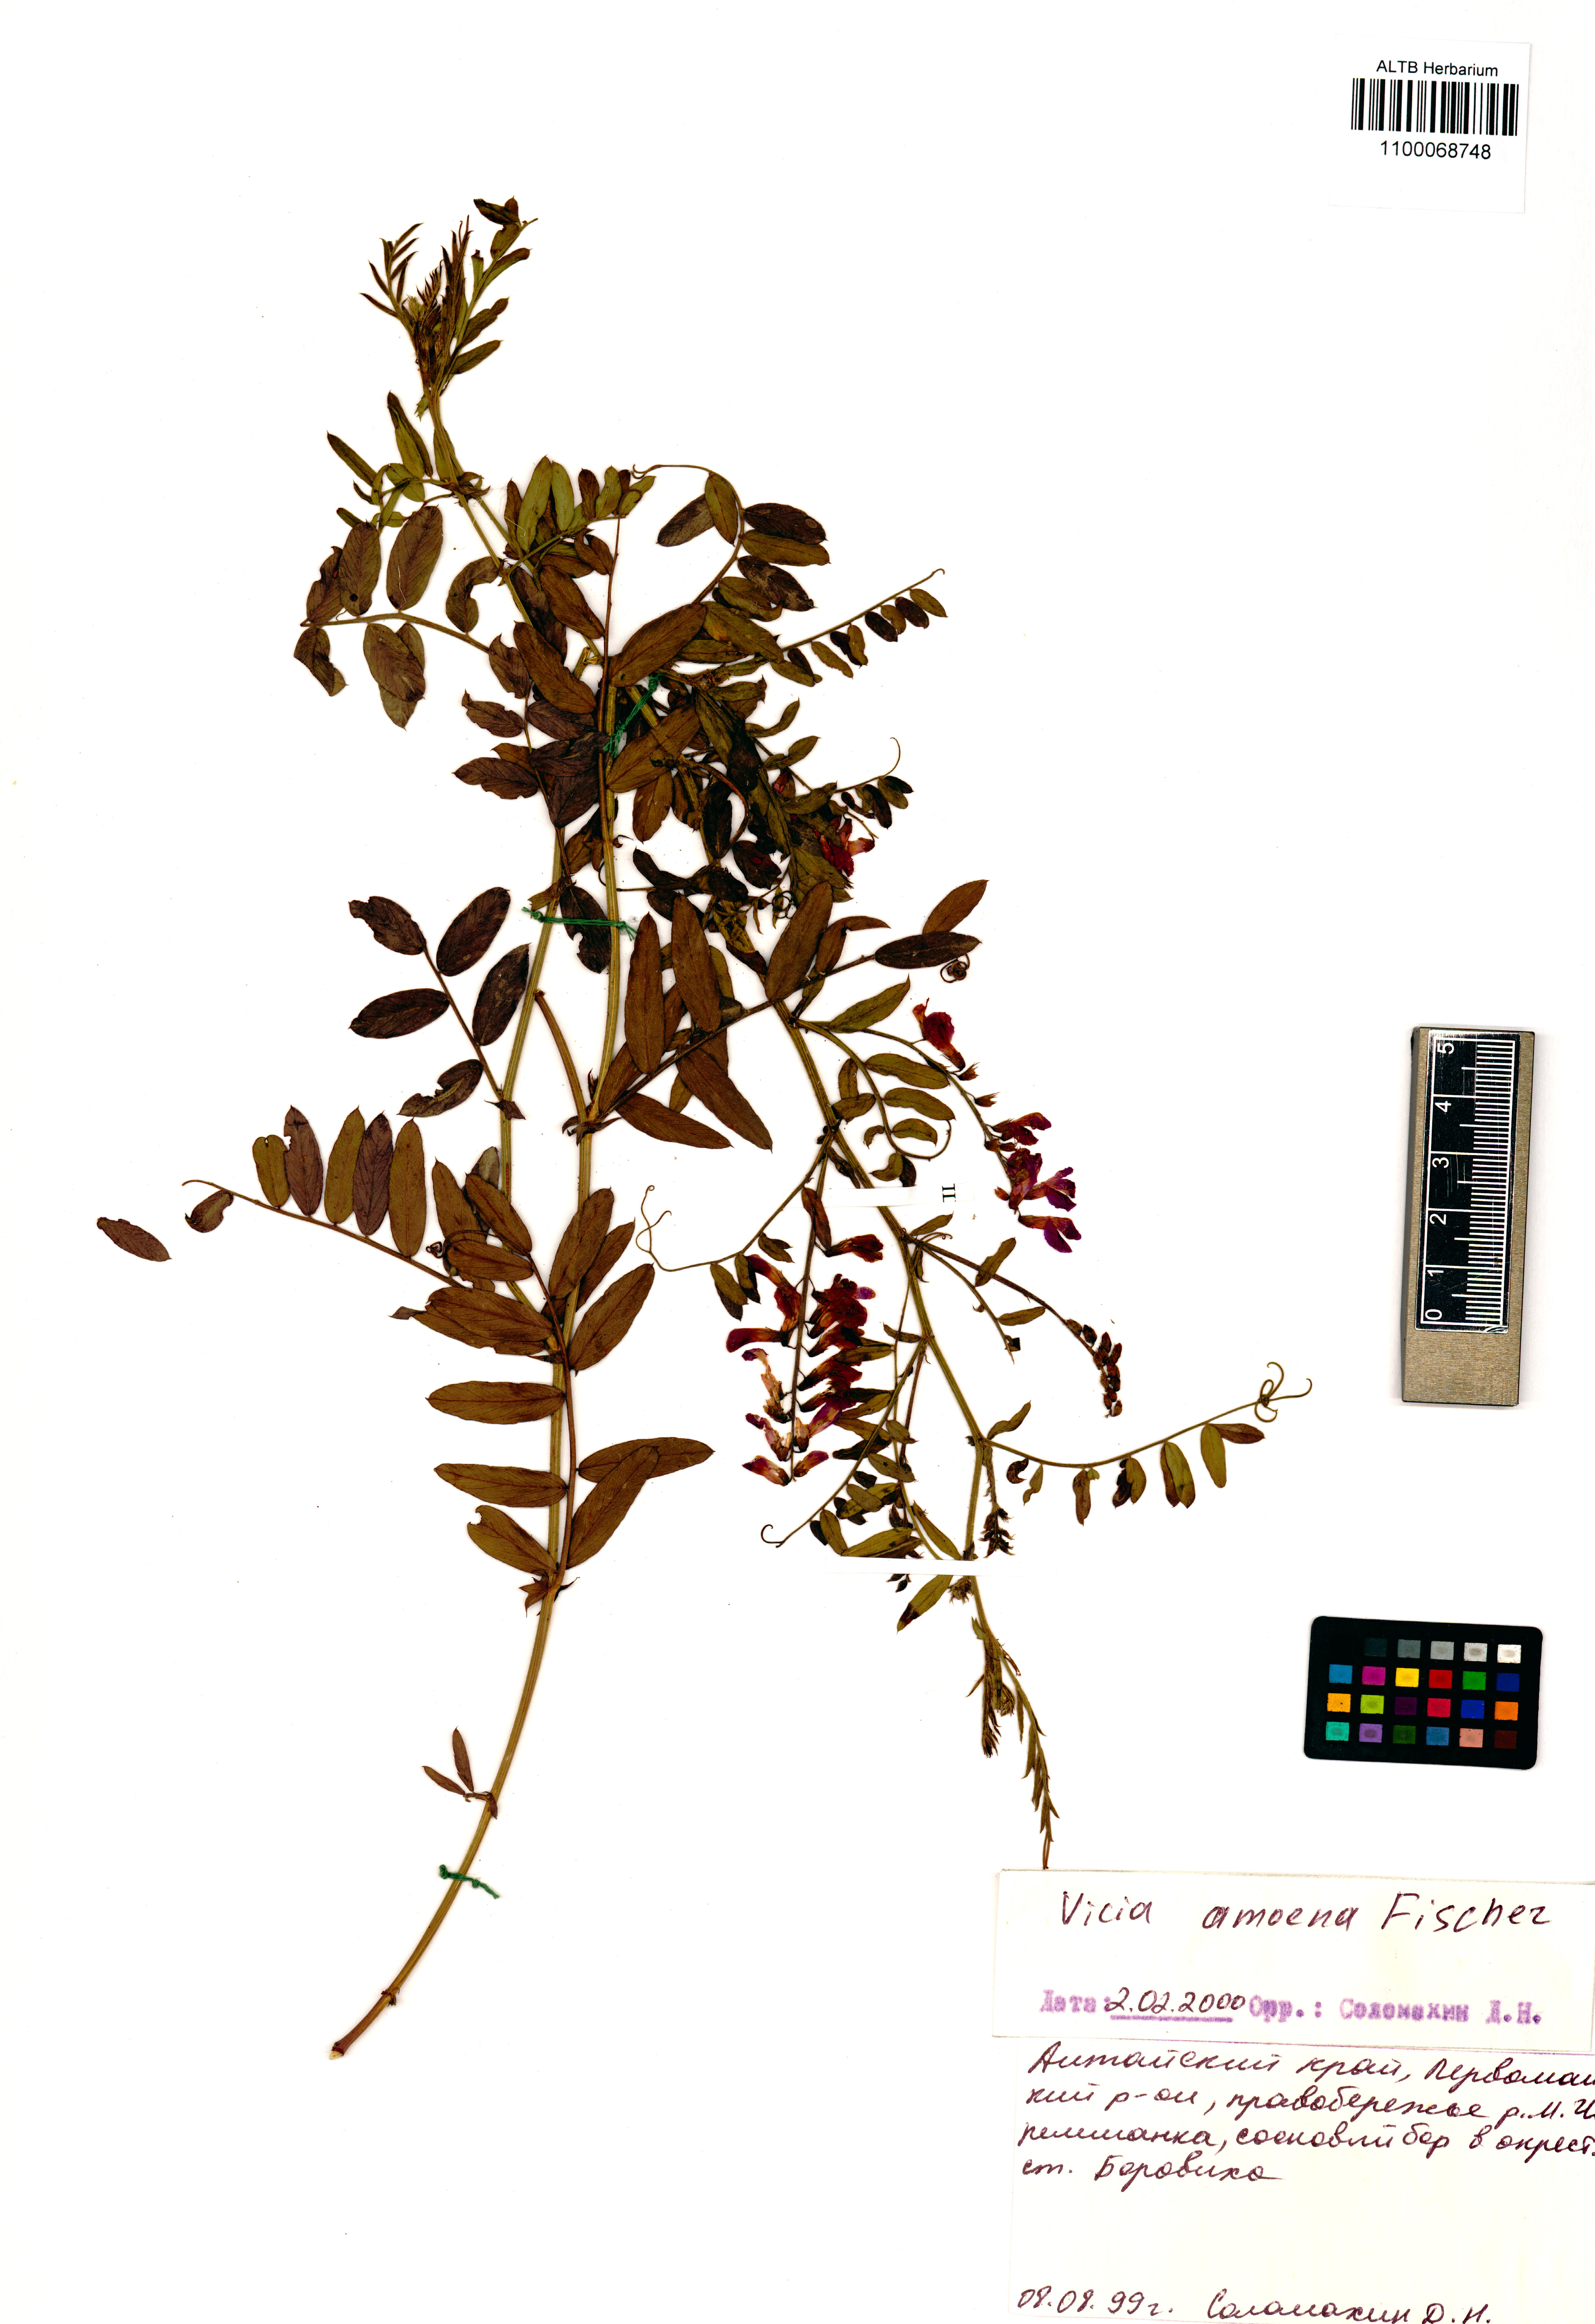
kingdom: Plantae
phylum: Tracheophyta
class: Magnoliopsida
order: Fabales
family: Fabaceae
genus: Vicia
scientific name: Vicia amoena
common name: Cheder ebs
